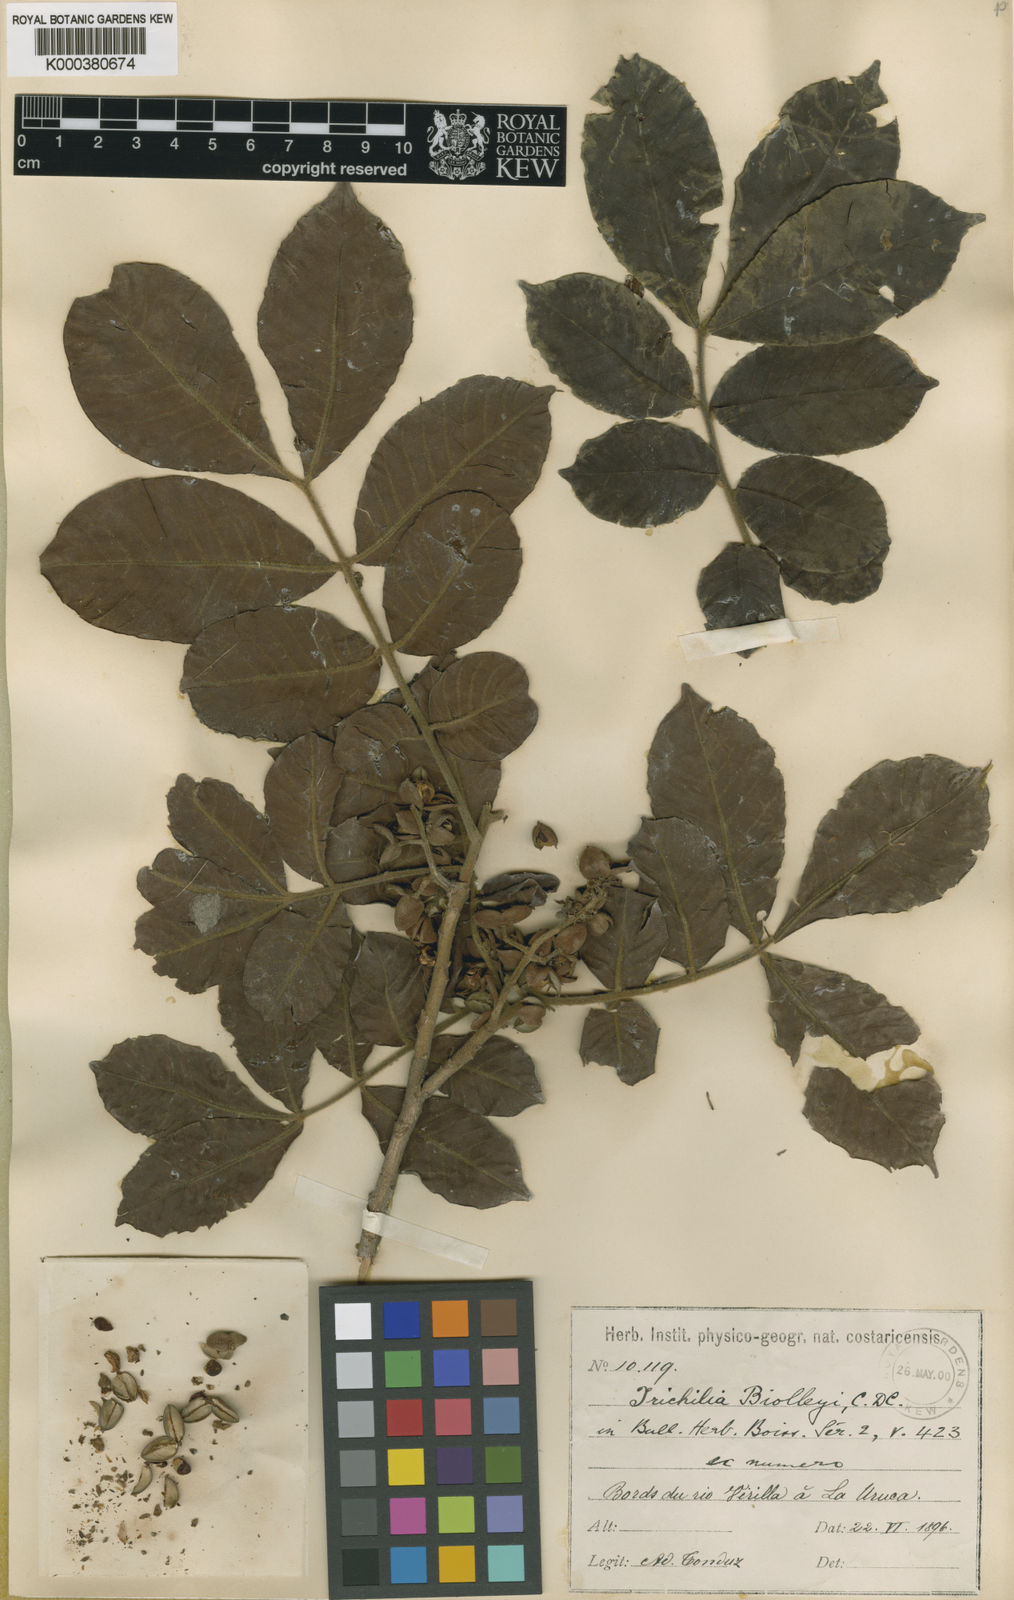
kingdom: Plantae
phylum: Tracheophyta
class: Magnoliopsida
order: Sapindales
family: Meliaceae
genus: Trichilia
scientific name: Trichilia martiana
